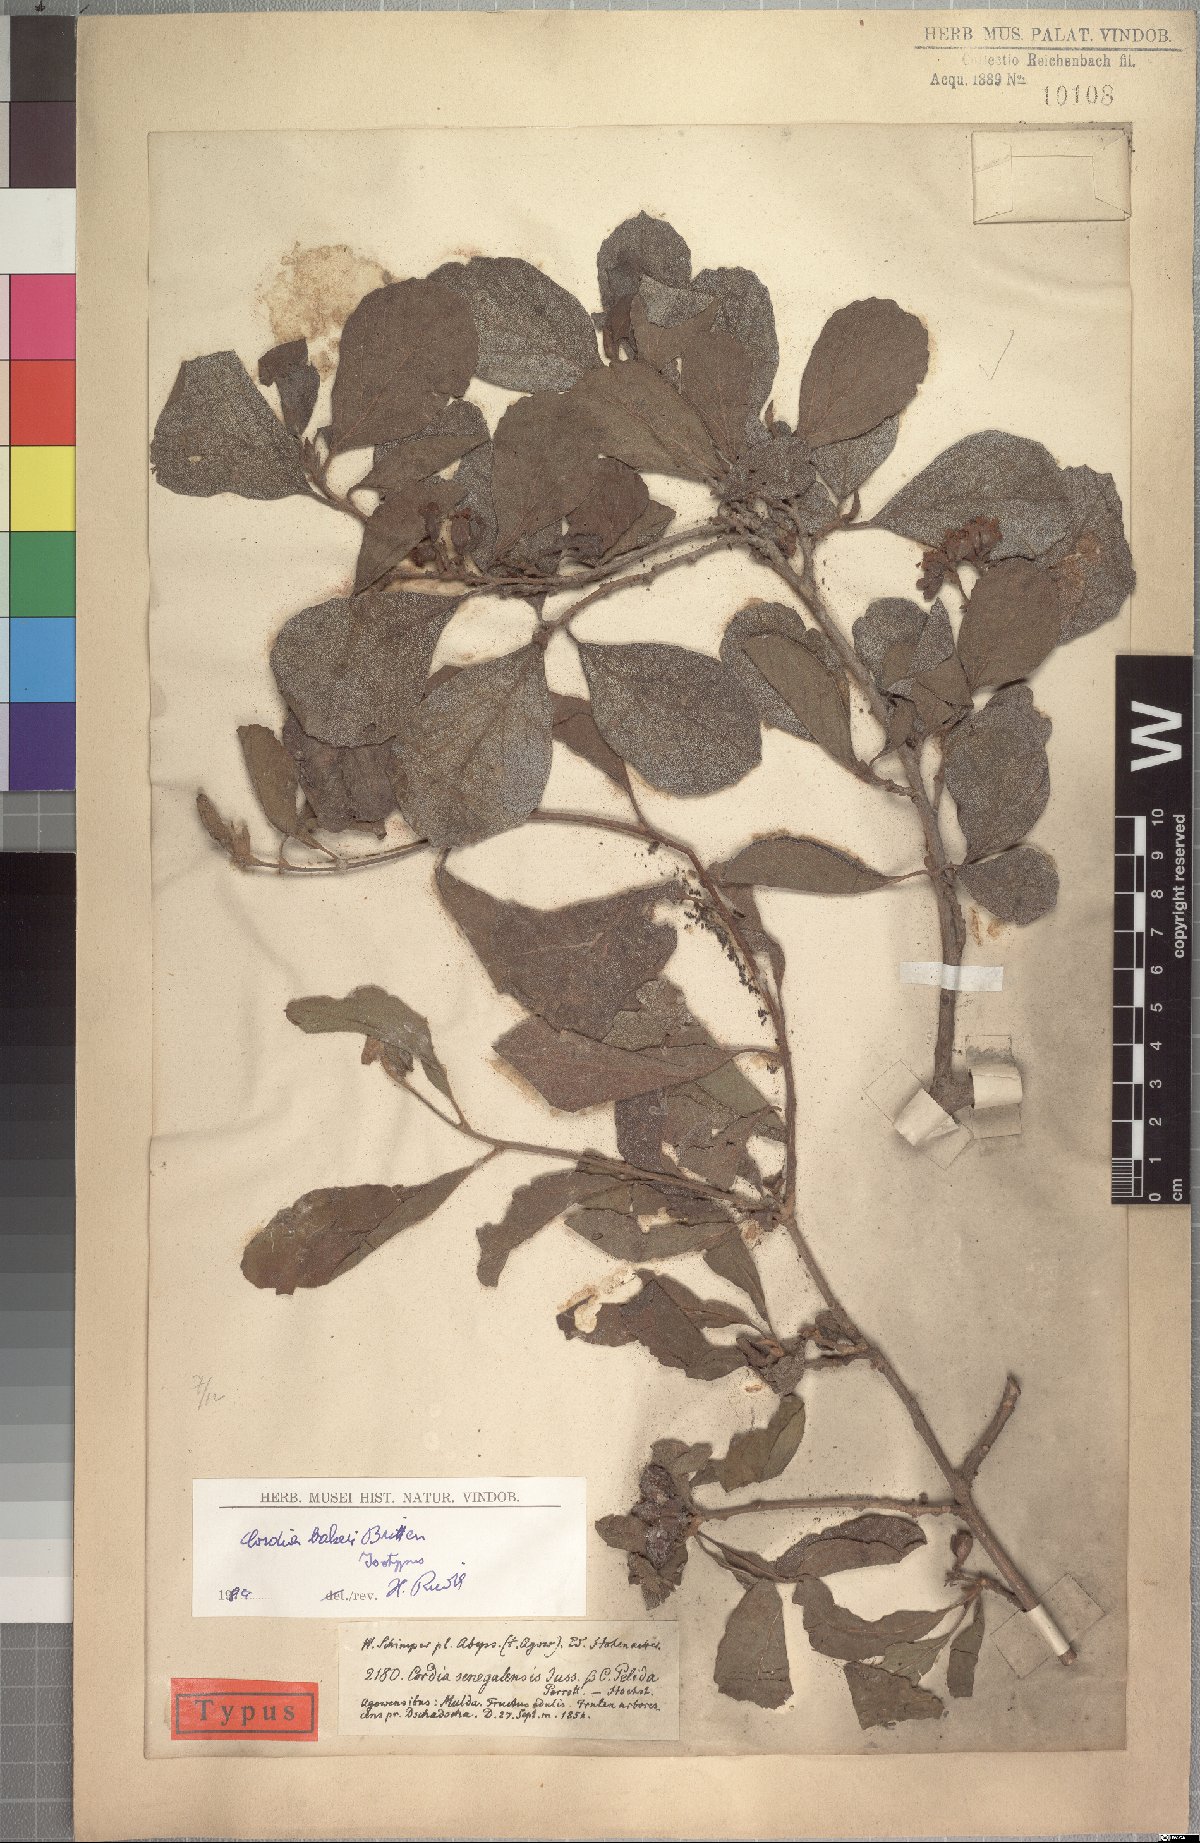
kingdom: Plantae
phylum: Tracheophyta
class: Magnoliopsida
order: Boraginales
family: Cordiaceae
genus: Cordia
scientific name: Cordia monoica
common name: Snot berry
